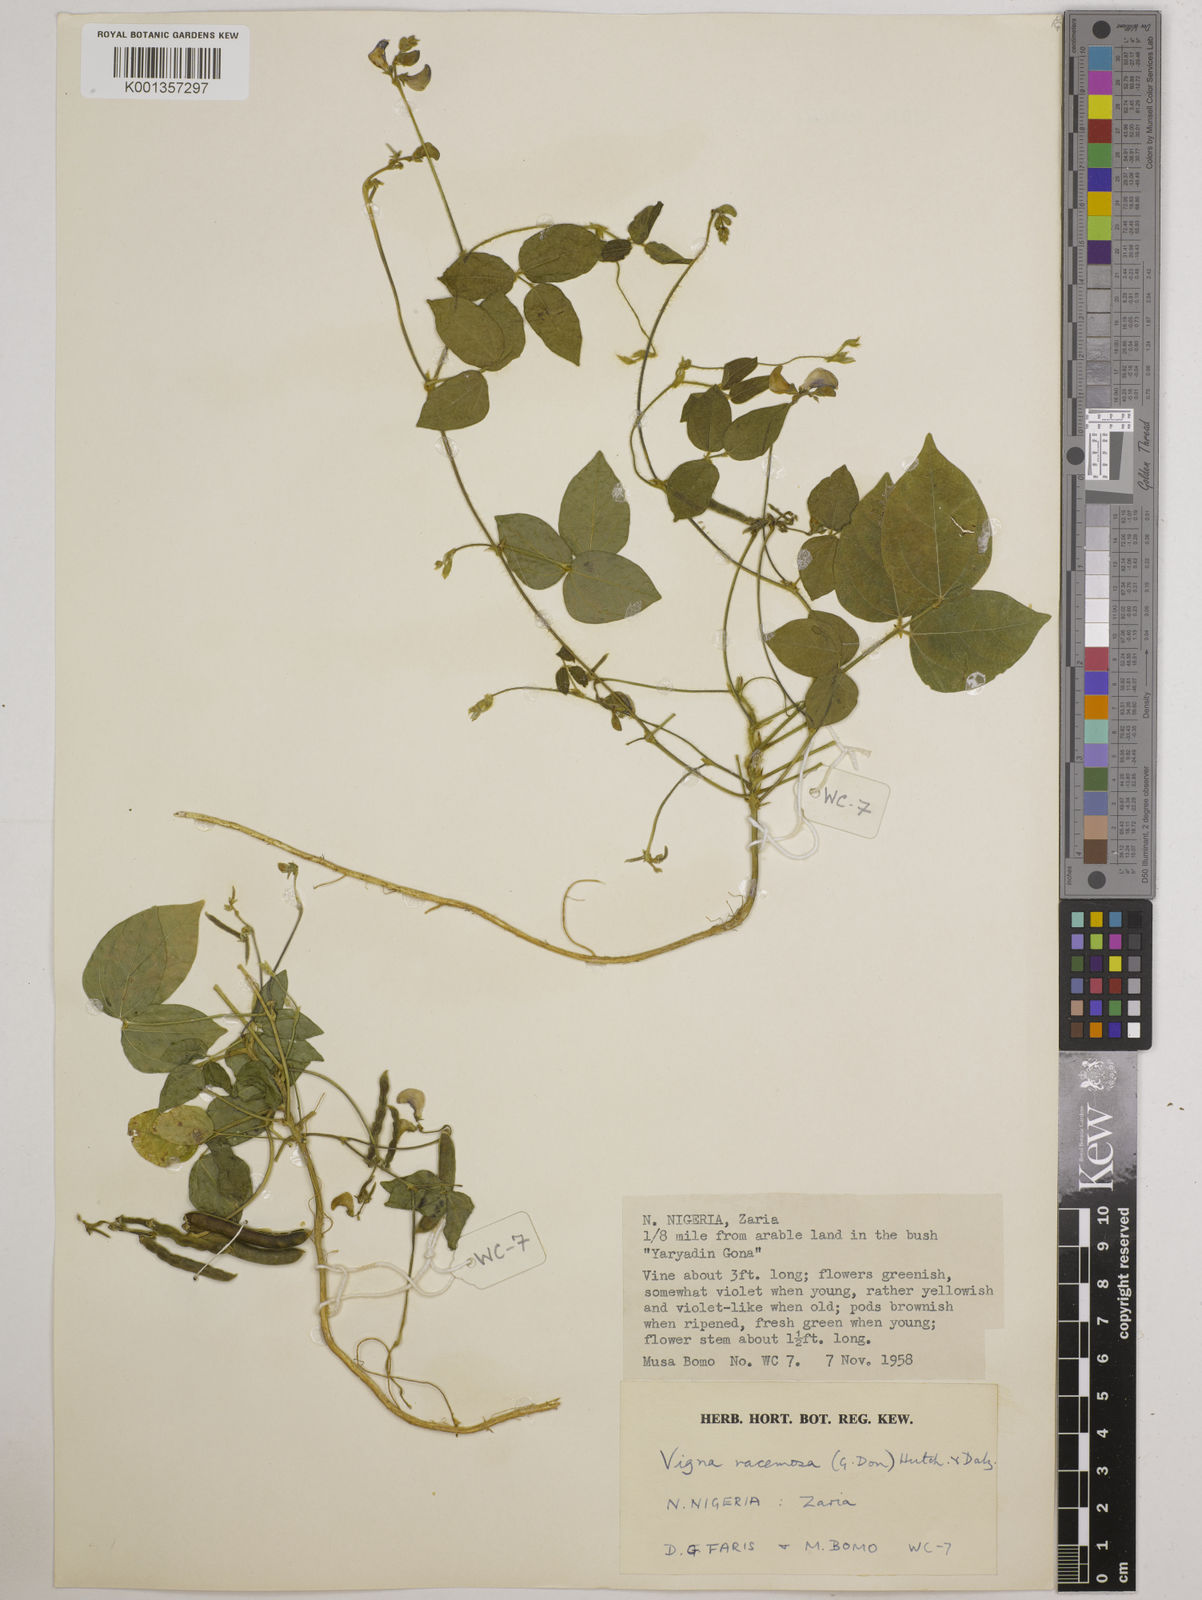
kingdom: Plantae
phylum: Tracheophyta
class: Magnoliopsida
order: Fabales
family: Fabaceae
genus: Vigna
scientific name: Vigna racemosa
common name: Beans not eaten
